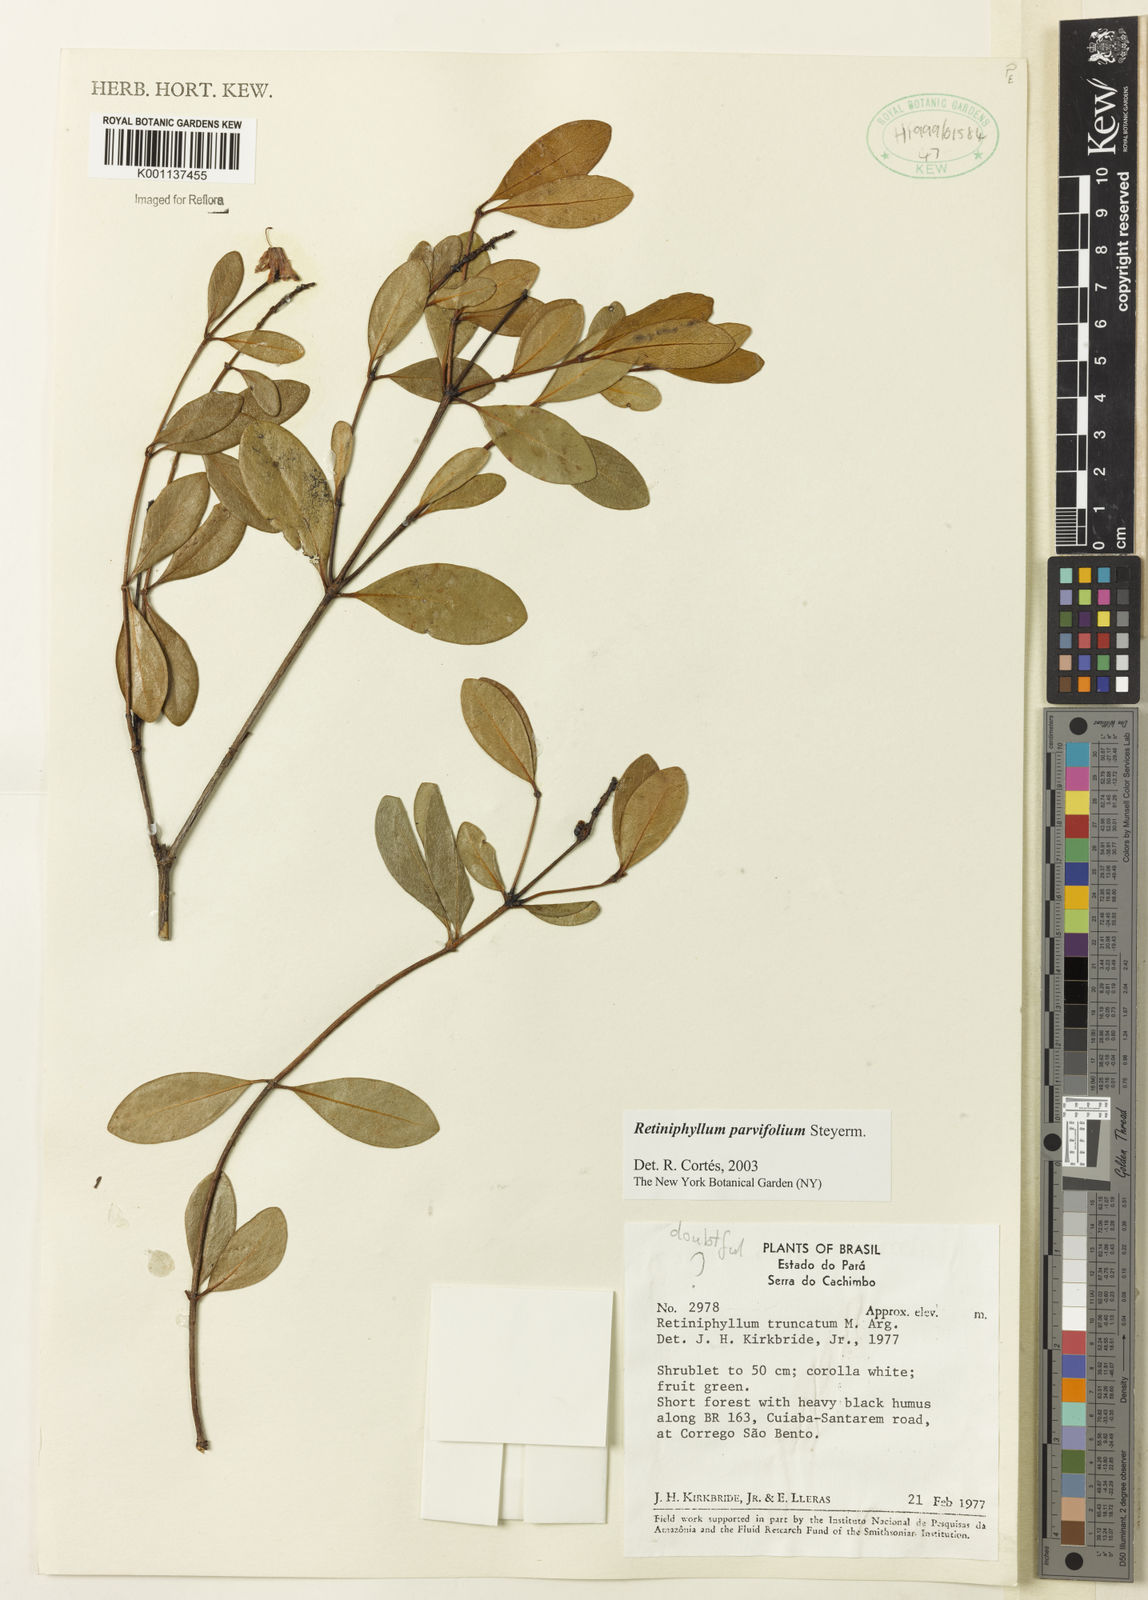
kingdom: Plantae
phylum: Tracheophyta
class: Magnoliopsida
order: Gentianales
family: Rubiaceae
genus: Retiniphyllum
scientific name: Retiniphyllum parvifolium
